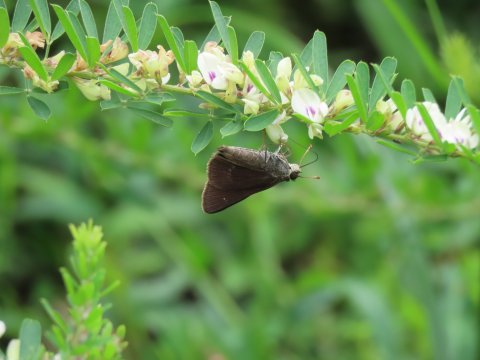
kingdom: Animalia
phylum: Arthropoda
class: Insecta
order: Lepidoptera
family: Hesperiidae
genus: Euphyes
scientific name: Euphyes vestris
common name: Dun Skipper
